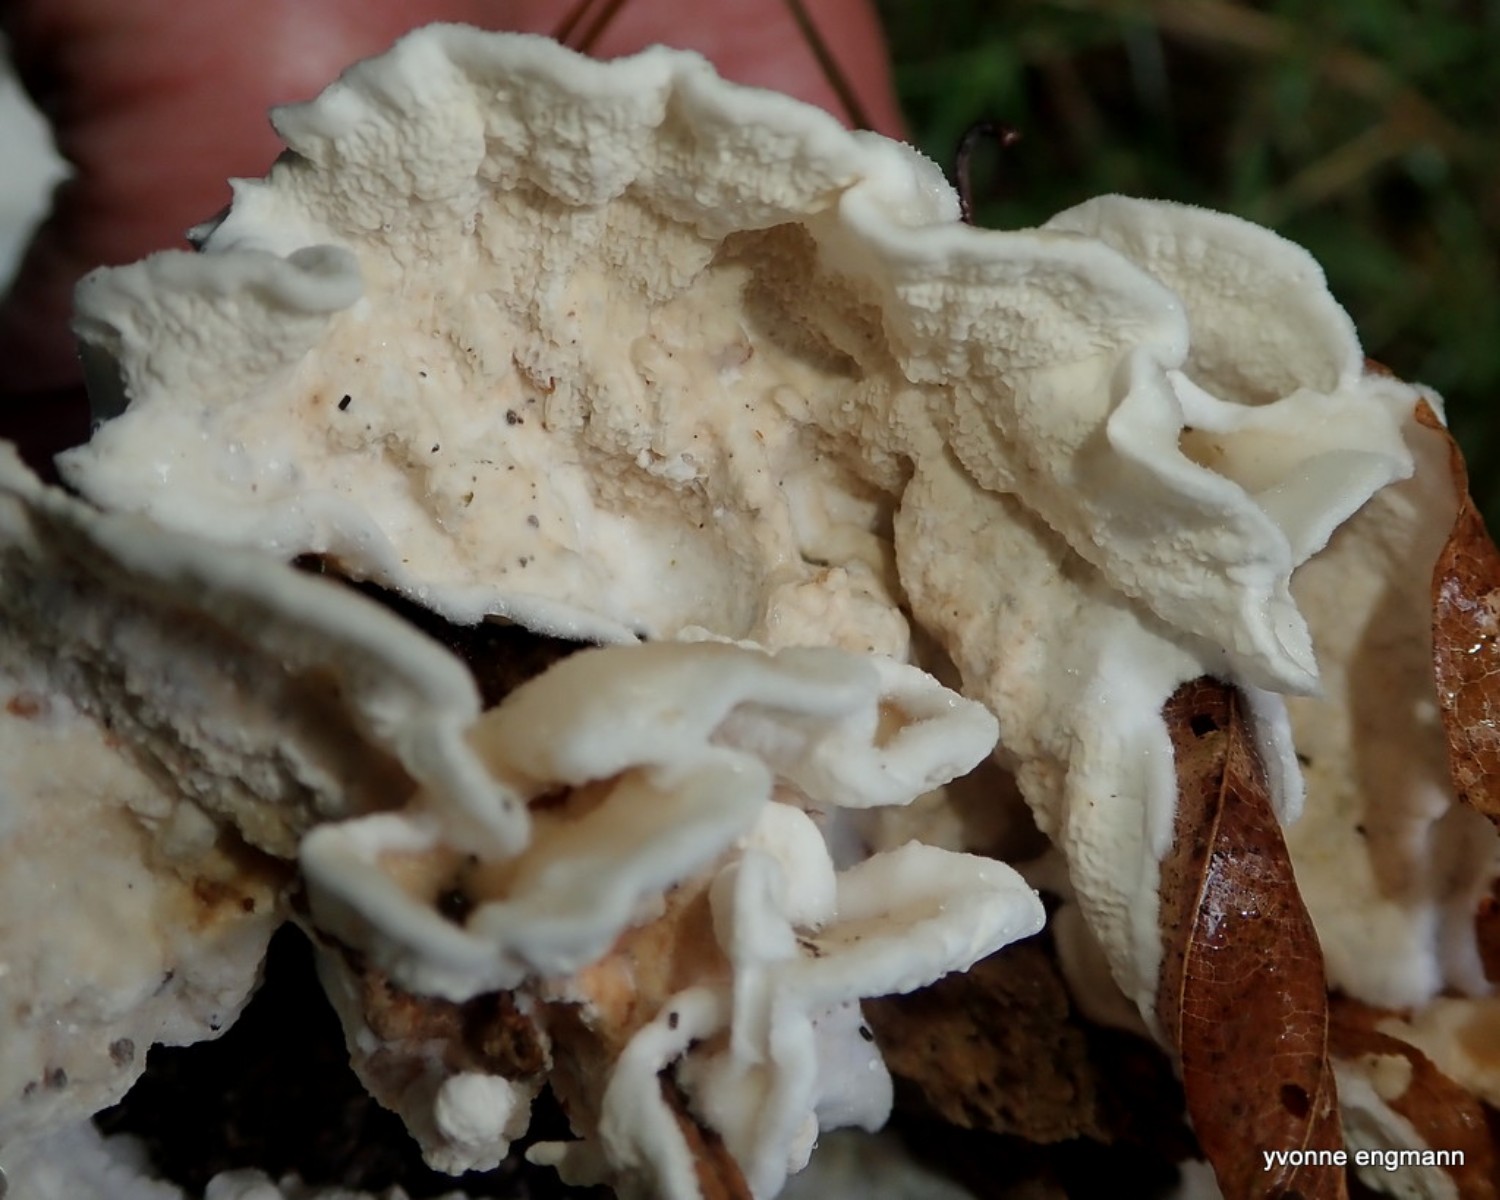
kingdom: Fungi
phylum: Basidiomycota
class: Agaricomycetes
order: Polyporales
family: Irpicaceae
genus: Byssomerulius
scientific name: Byssomerulius corium
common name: læder-åresvamp
